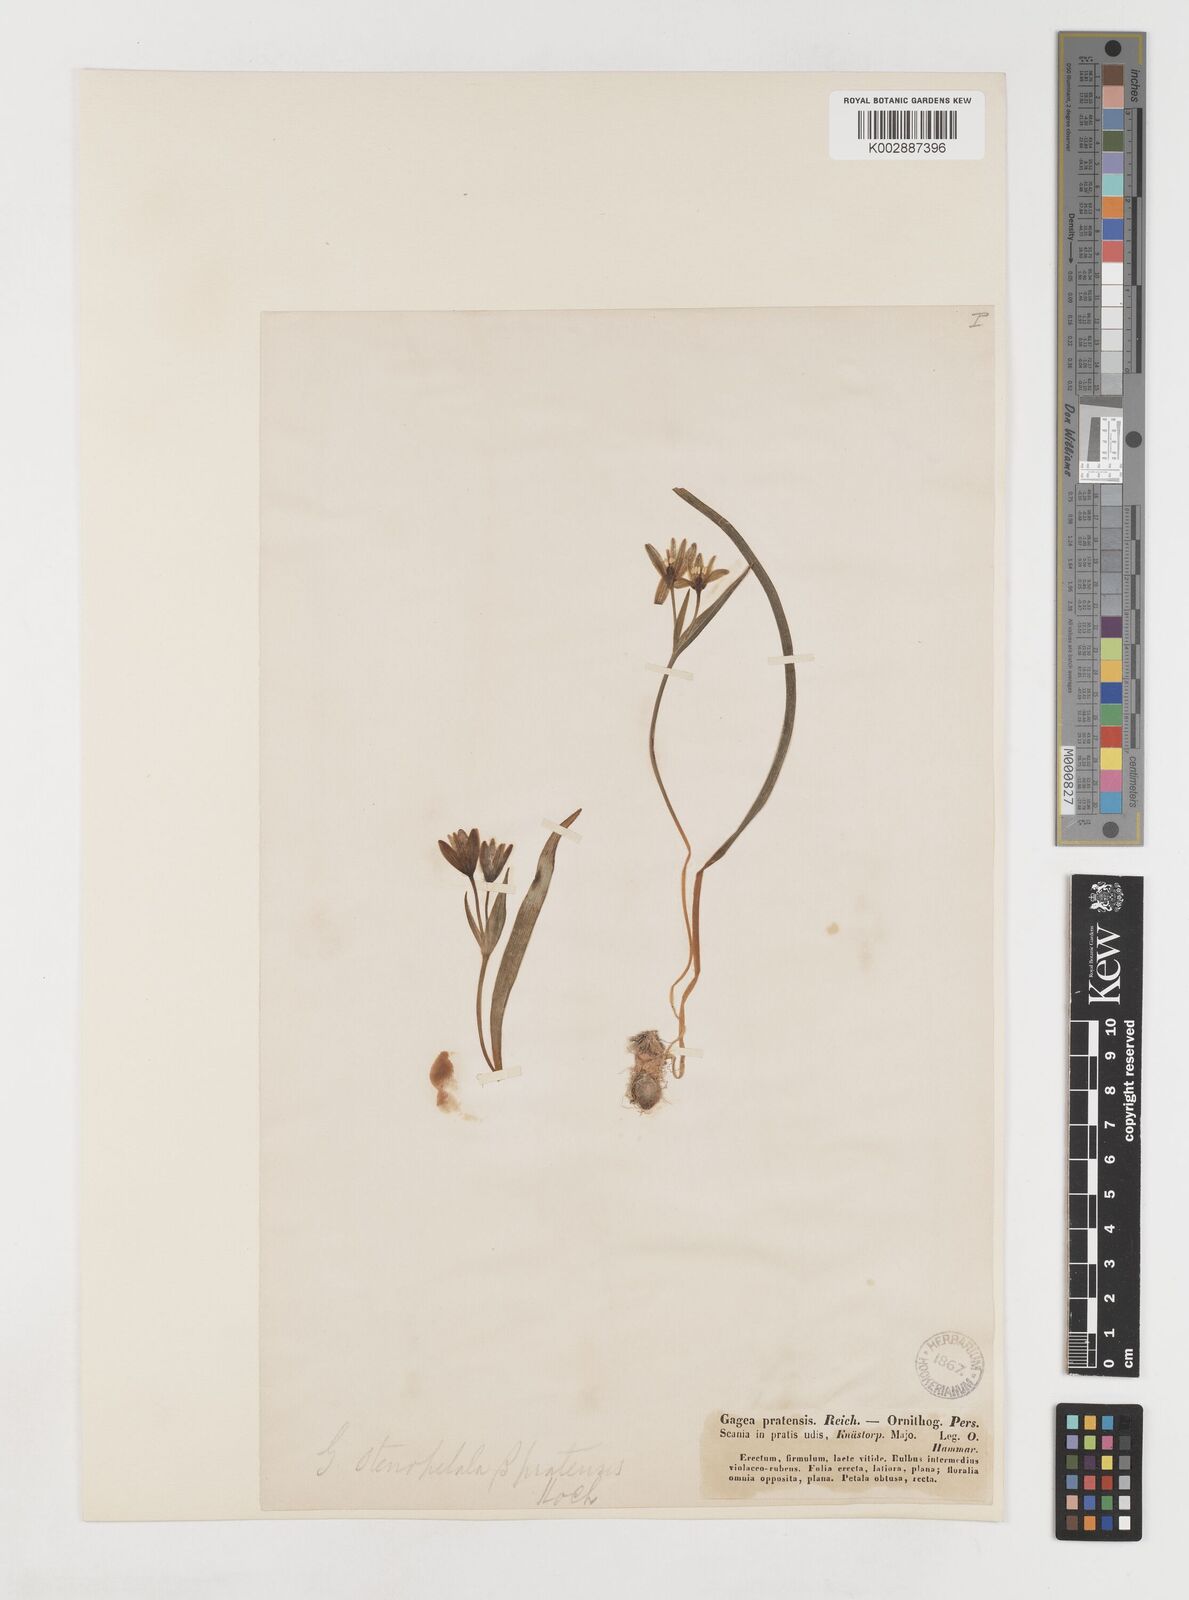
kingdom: Plantae
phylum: Tracheophyta
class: Liliopsida
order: Liliales
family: Liliaceae
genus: Gagea
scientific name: Gagea pratensis
